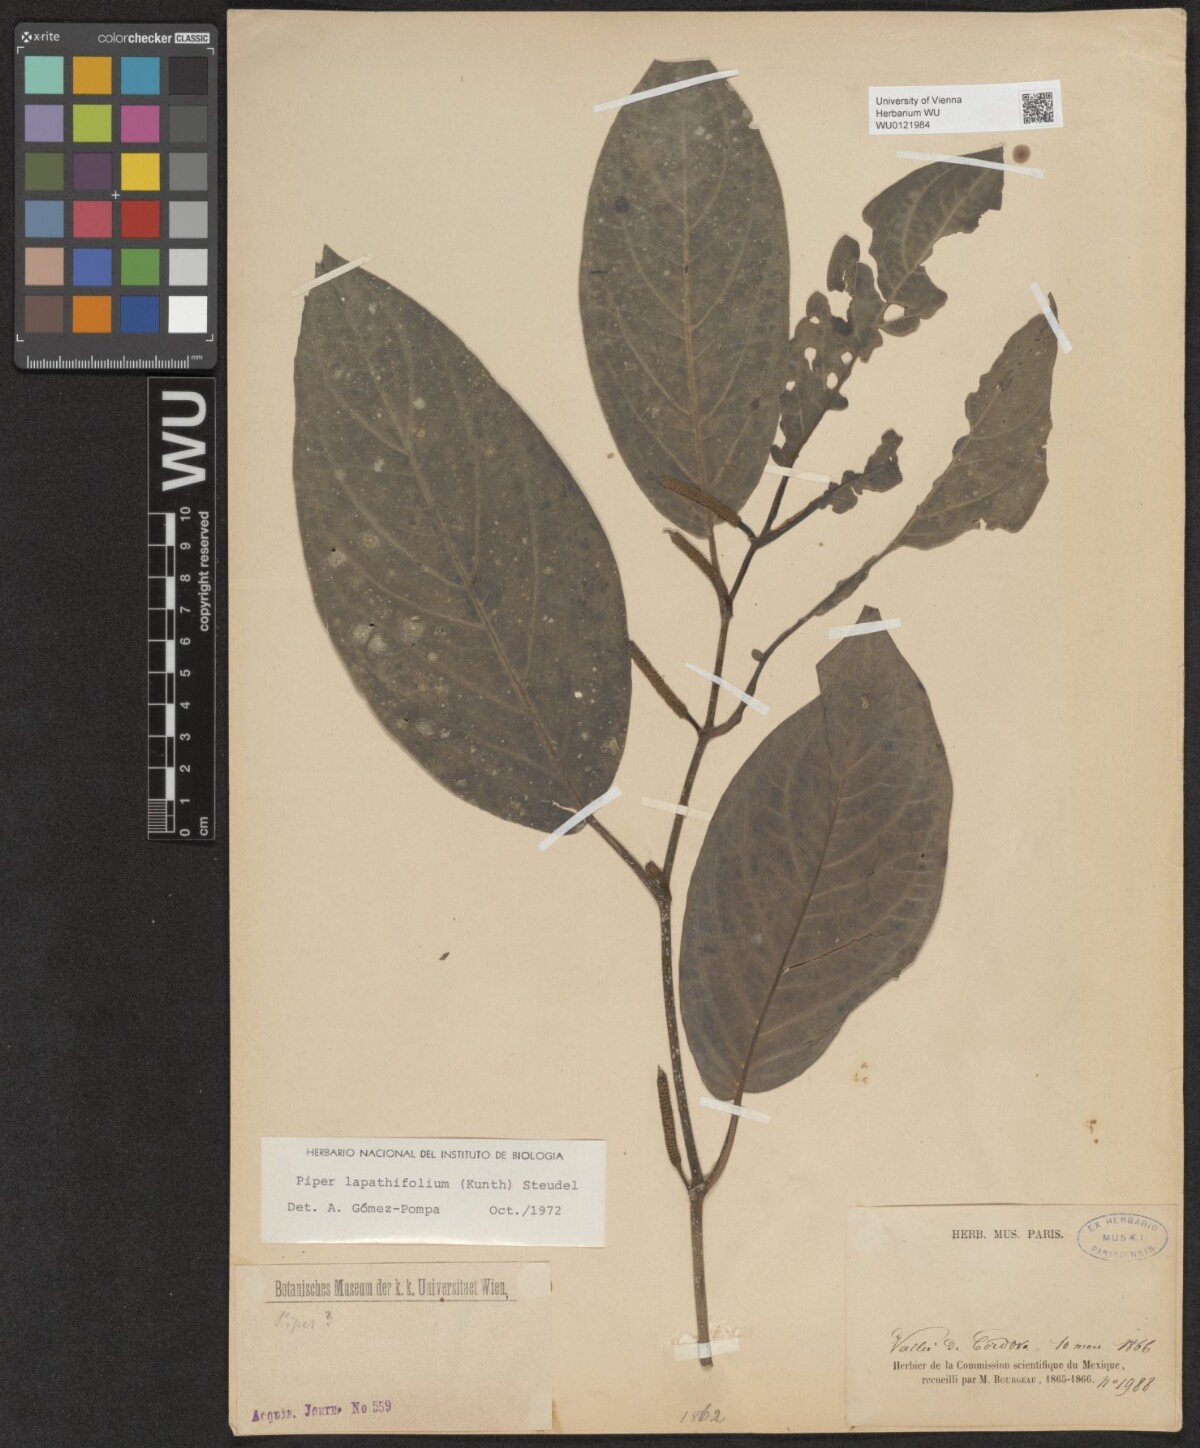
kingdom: Plantae
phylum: Tracheophyta
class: Magnoliopsida
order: Piperales
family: Piperaceae
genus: Piper
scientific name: Piper lapathifolium
